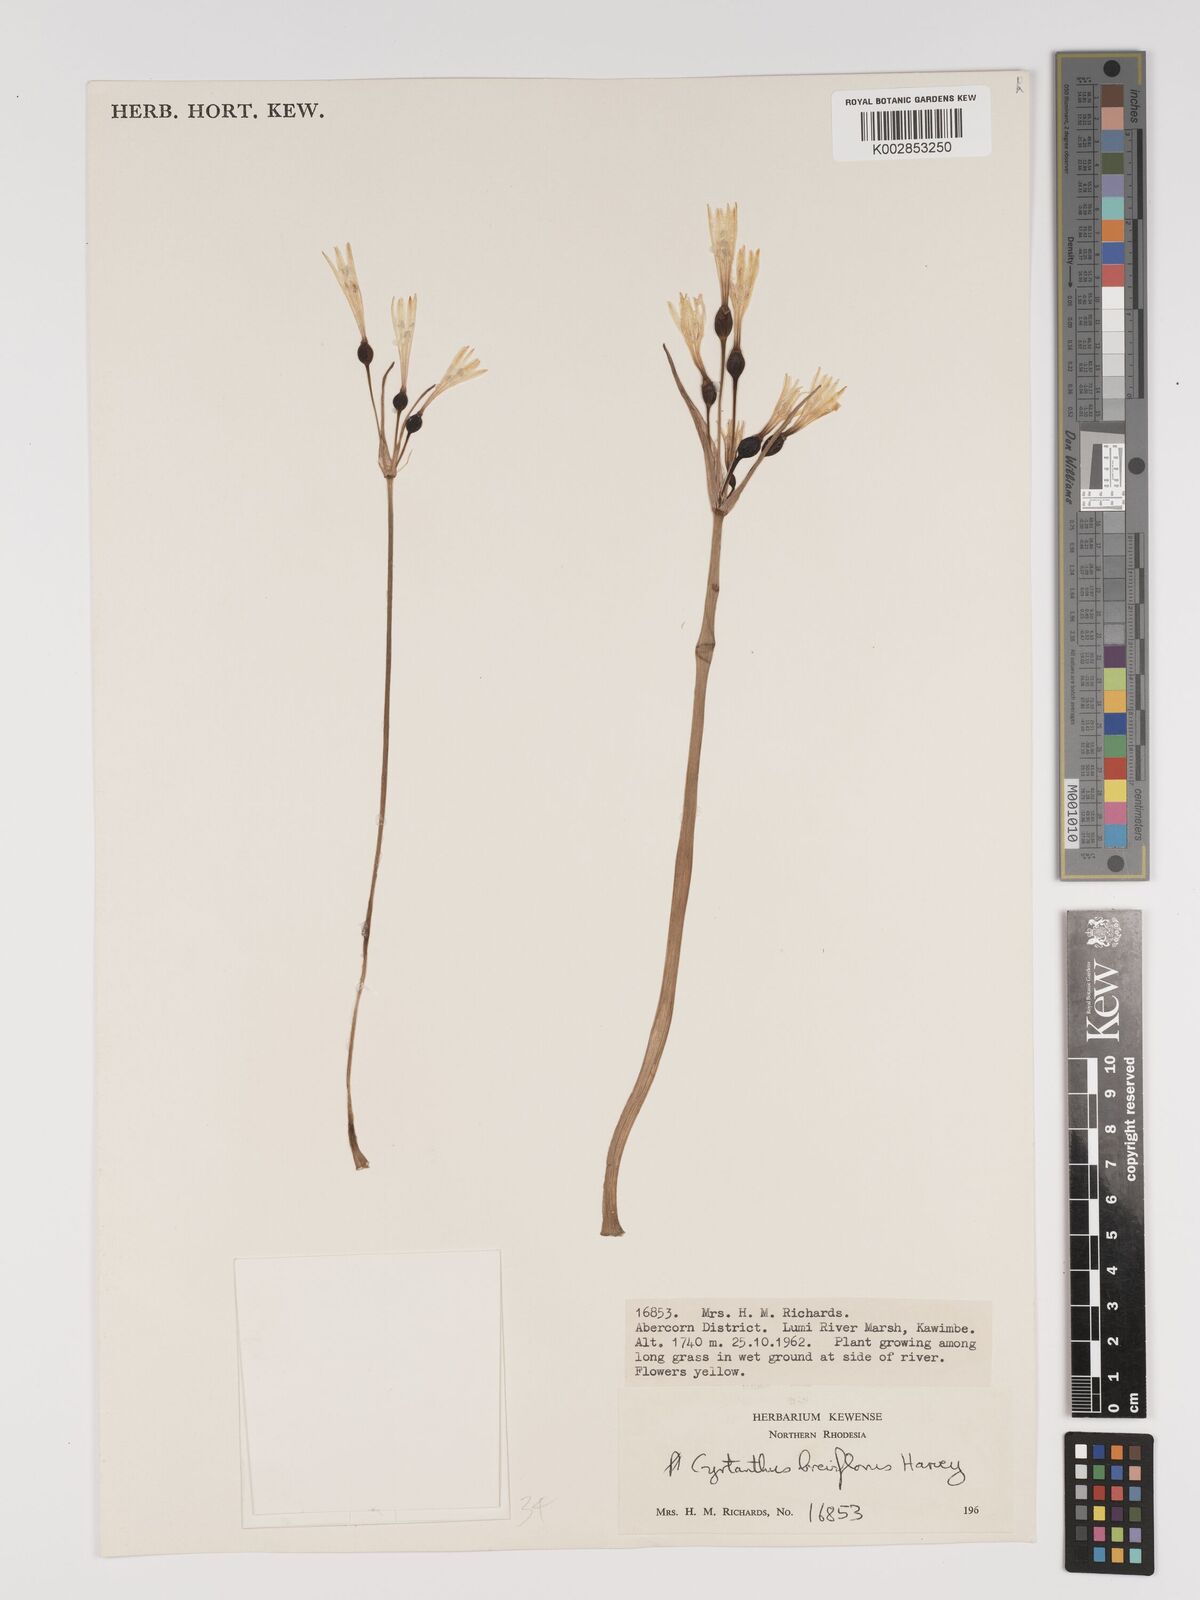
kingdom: Plantae
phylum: Tracheophyta
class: Liliopsida
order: Asparagales
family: Amaryllidaceae
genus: Cyrtanthus
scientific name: Cyrtanthus breviflorus
